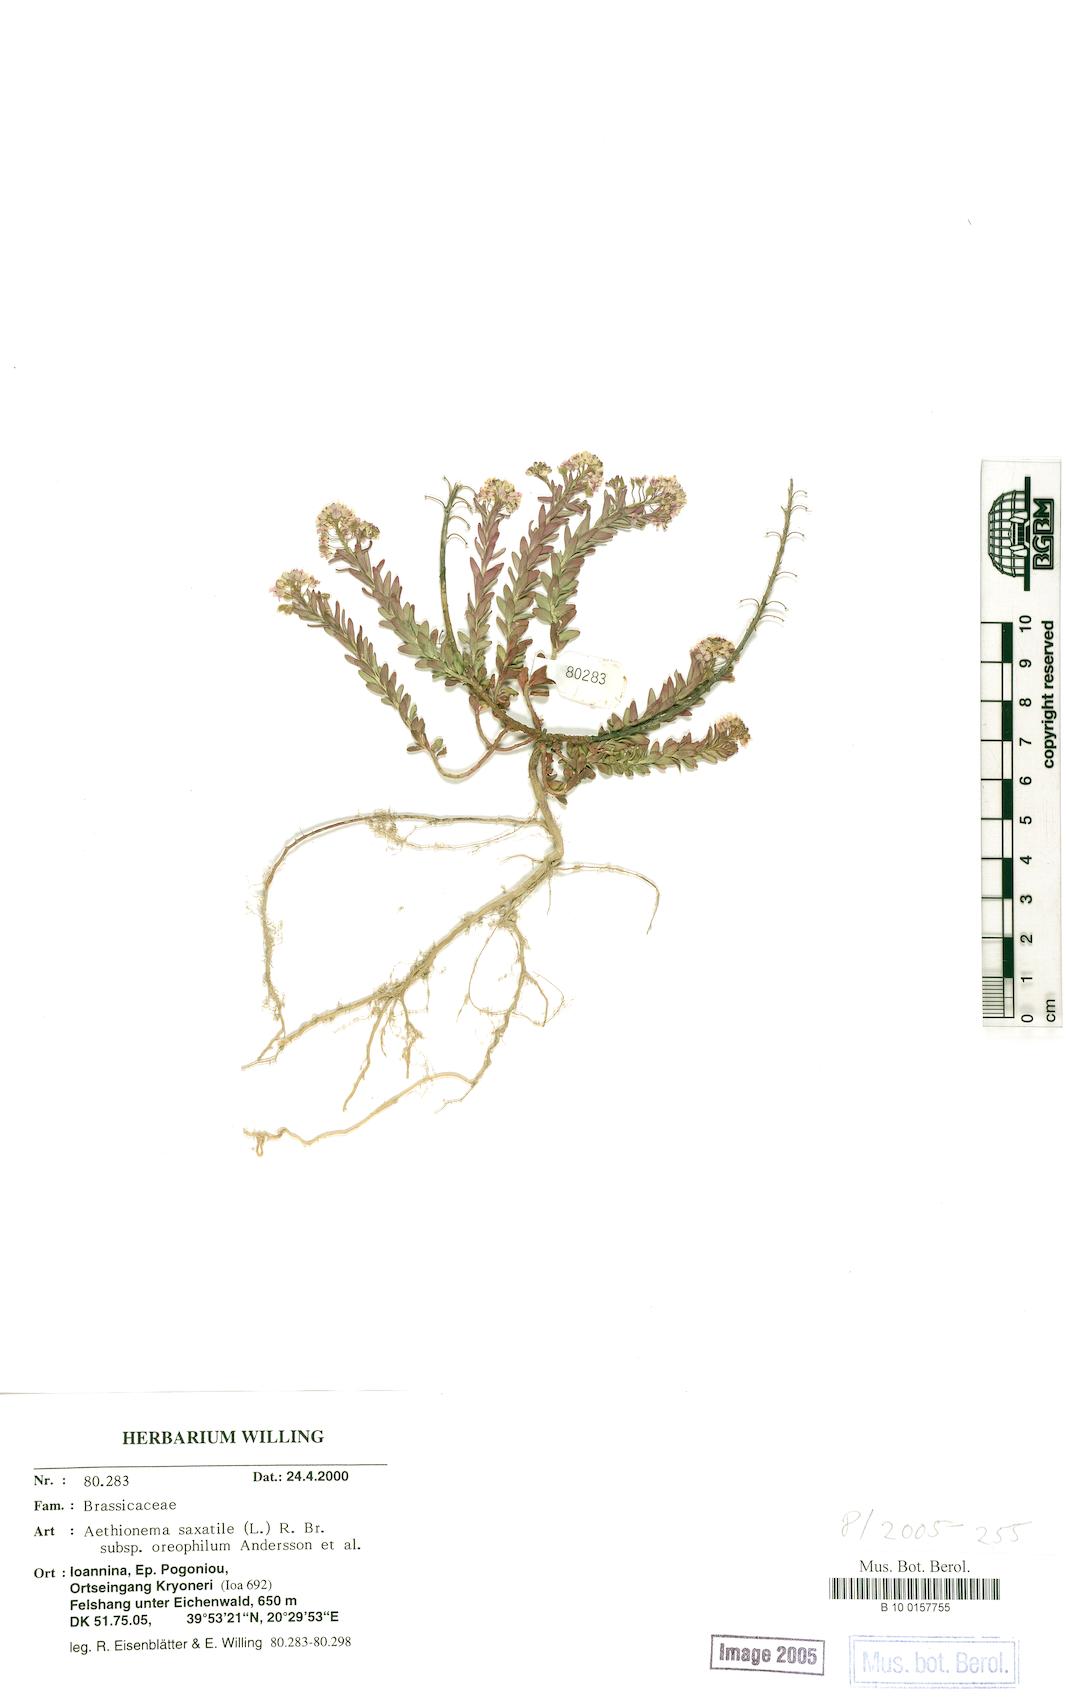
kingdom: Plantae
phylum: Tracheophyta
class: Magnoliopsida
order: Brassicales
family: Brassicaceae
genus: Aethionema
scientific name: Aethionema saxatile
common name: Burnt candytuft
